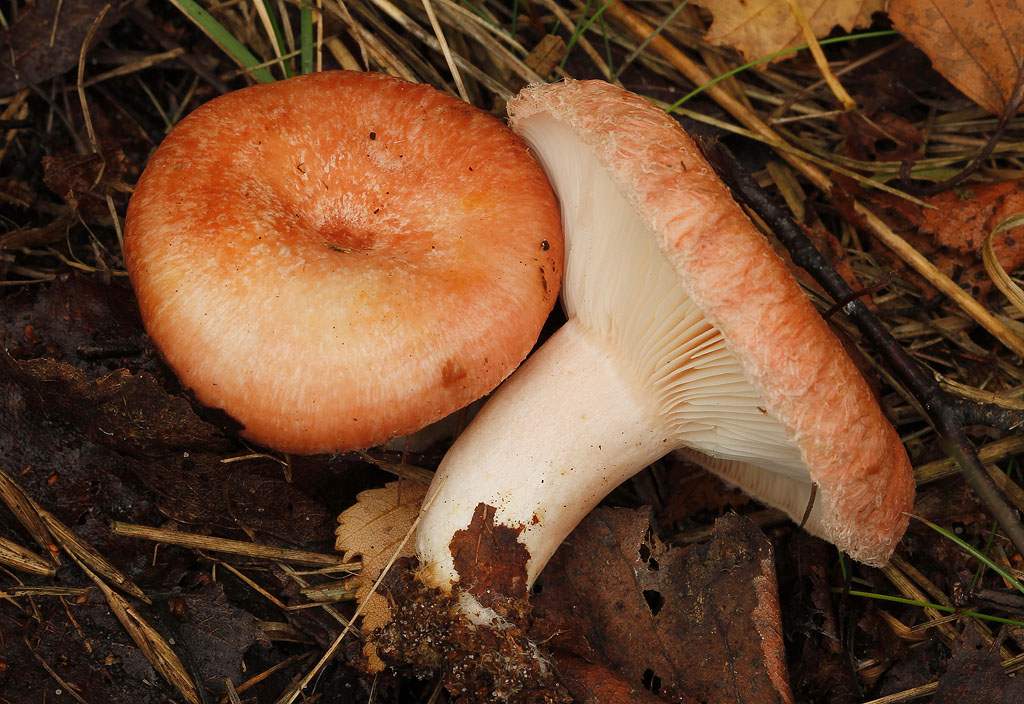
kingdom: Fungi
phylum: Basidiomycota
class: Agaricomycetes
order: Russulales
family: Russulaceae
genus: Lactarius
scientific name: Lactarius torminosus
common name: skægget mælkehat
